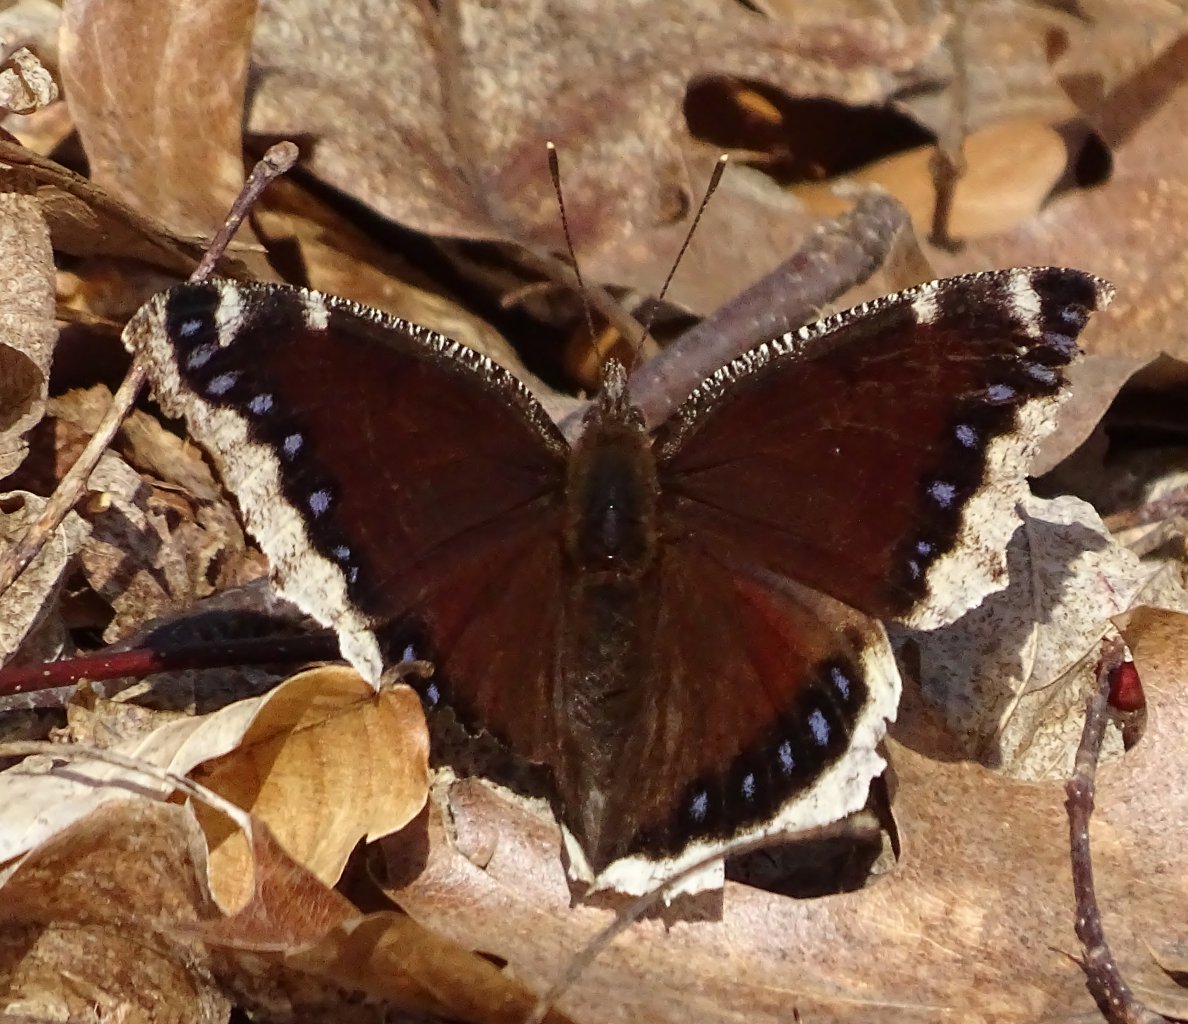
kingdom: Animalia
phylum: Arthropoda
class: Insecta
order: Lepidoptera
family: Nymphalidae
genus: Nymphalis
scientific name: Nymphalis antiopa
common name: Mourning Cloak
